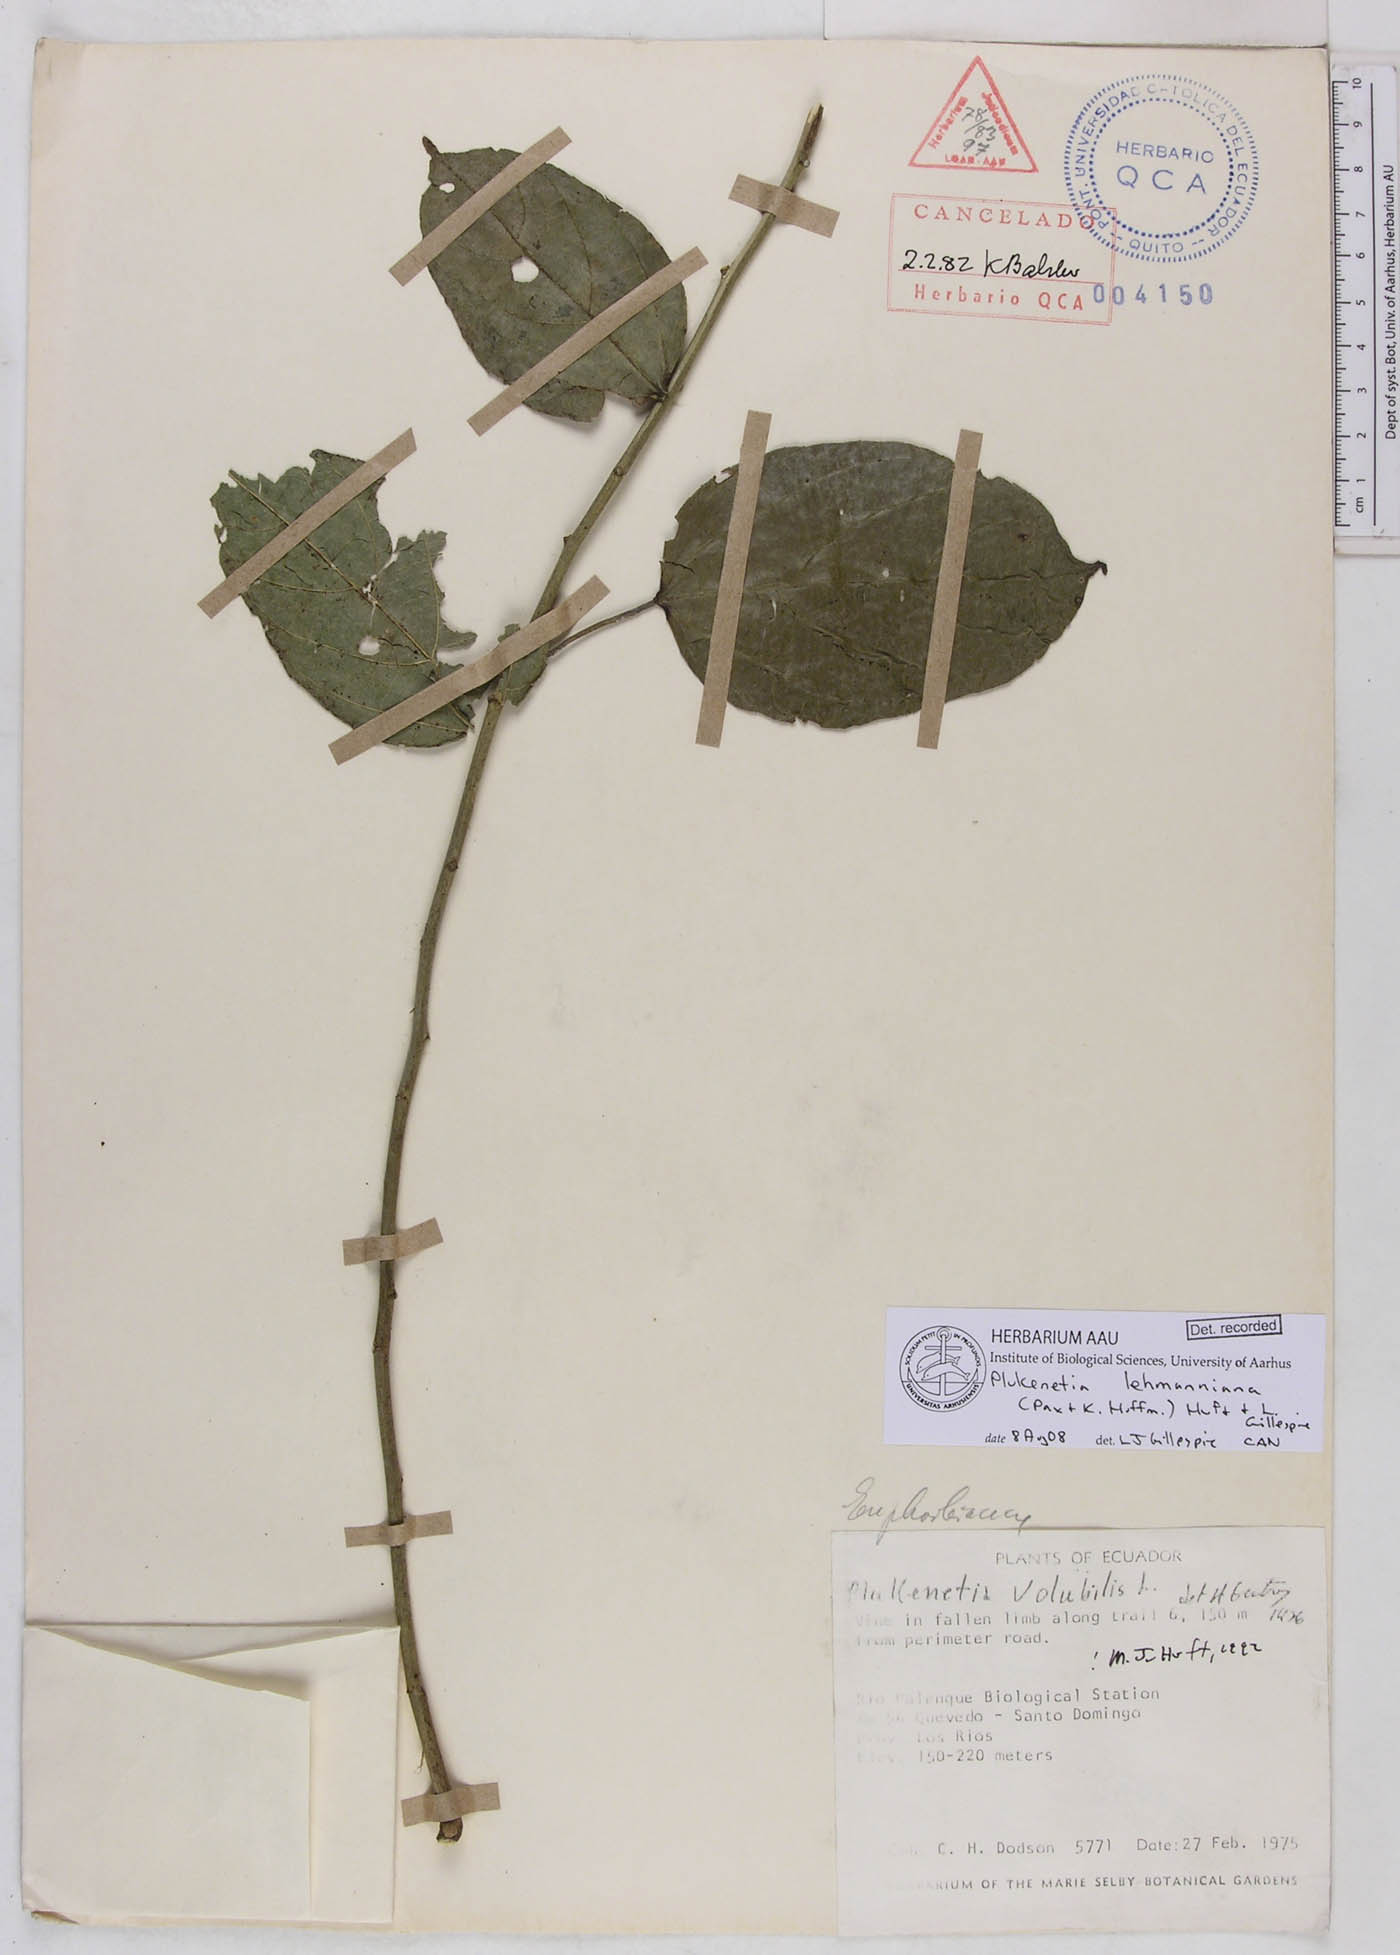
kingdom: Plantae
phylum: Tracheophyta
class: Magnoliopsida
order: Malpighiales
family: Euphorbiaceae
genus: Plukenetia
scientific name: Plukenetia lehmanniana
